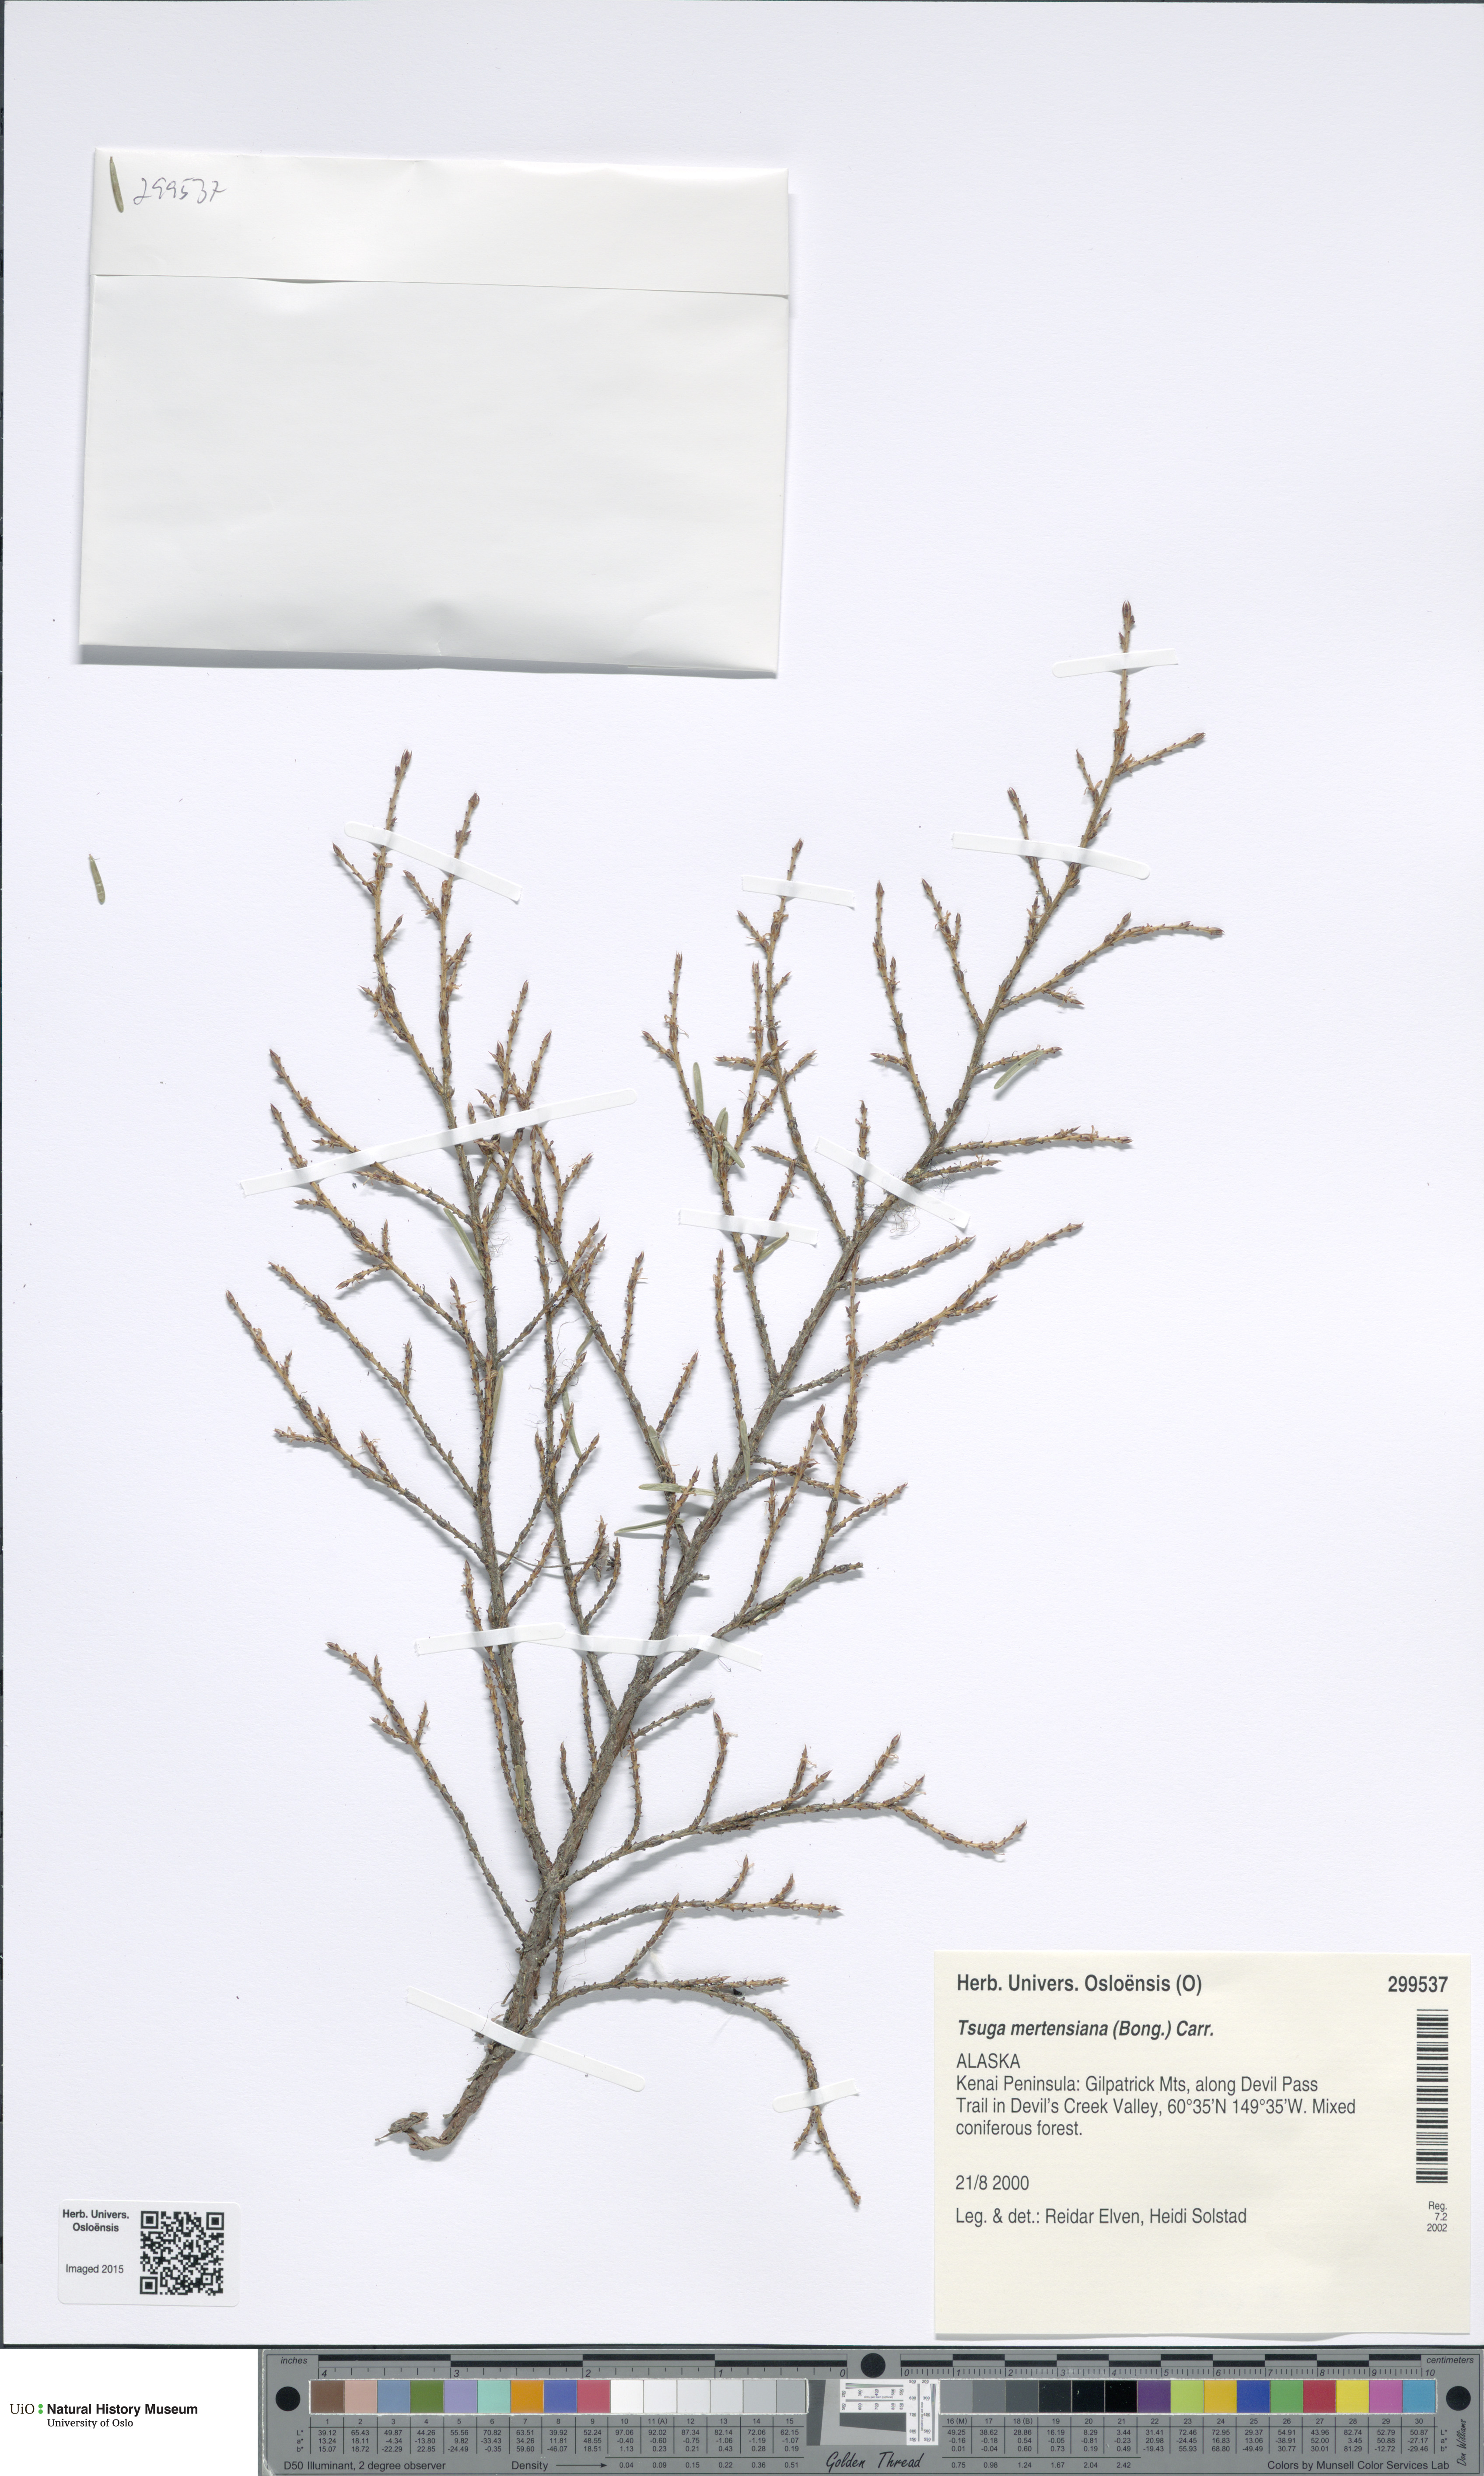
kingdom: Plantae
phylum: Tracheophyta
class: Pinopsida
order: Pinales
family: Pinaceae
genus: Tsuga
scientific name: Tsuga mertensiana
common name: Mountain hemlock
